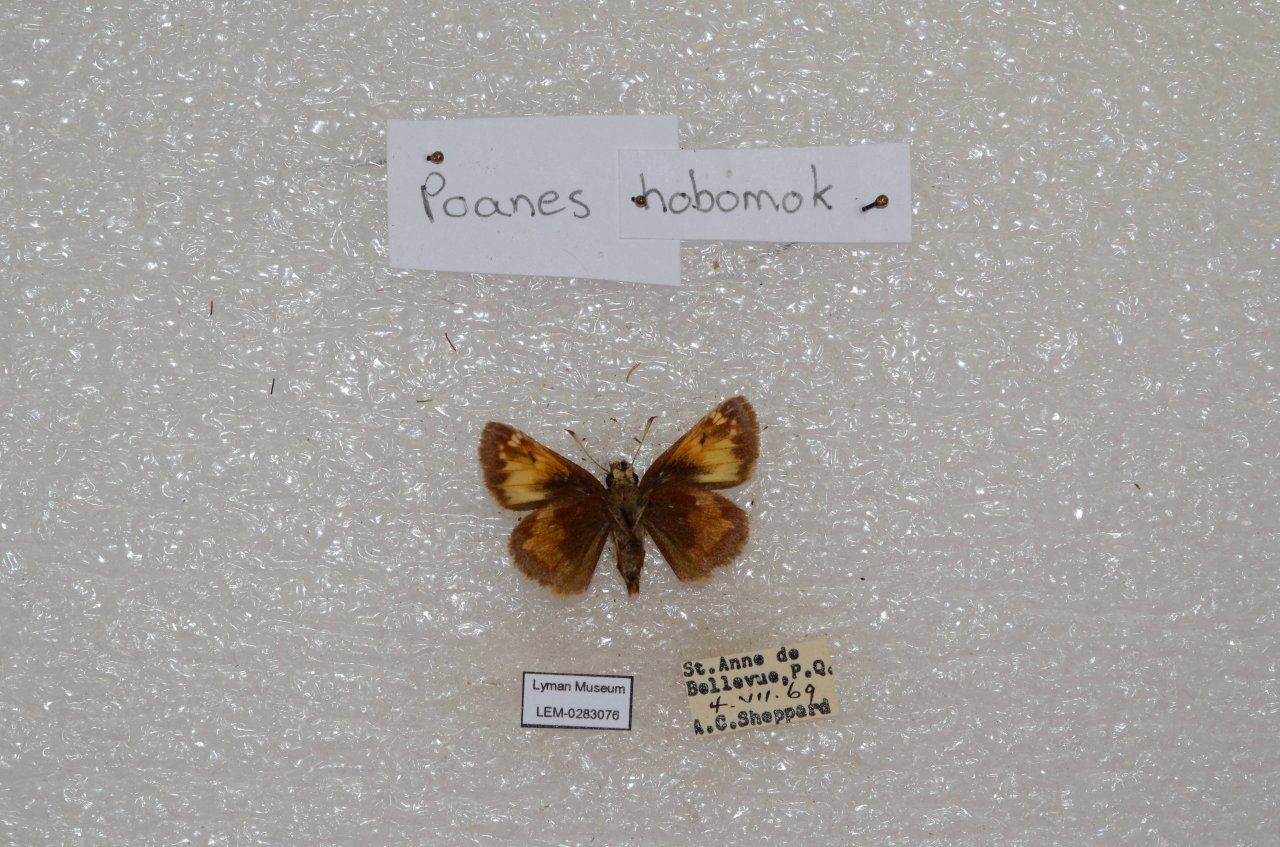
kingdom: Animalia
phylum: Arthropoda
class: Insecta
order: Lepidoptera
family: Hesperiidae
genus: Lon
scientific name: Lon hobomok
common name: Hobomok Skipper
